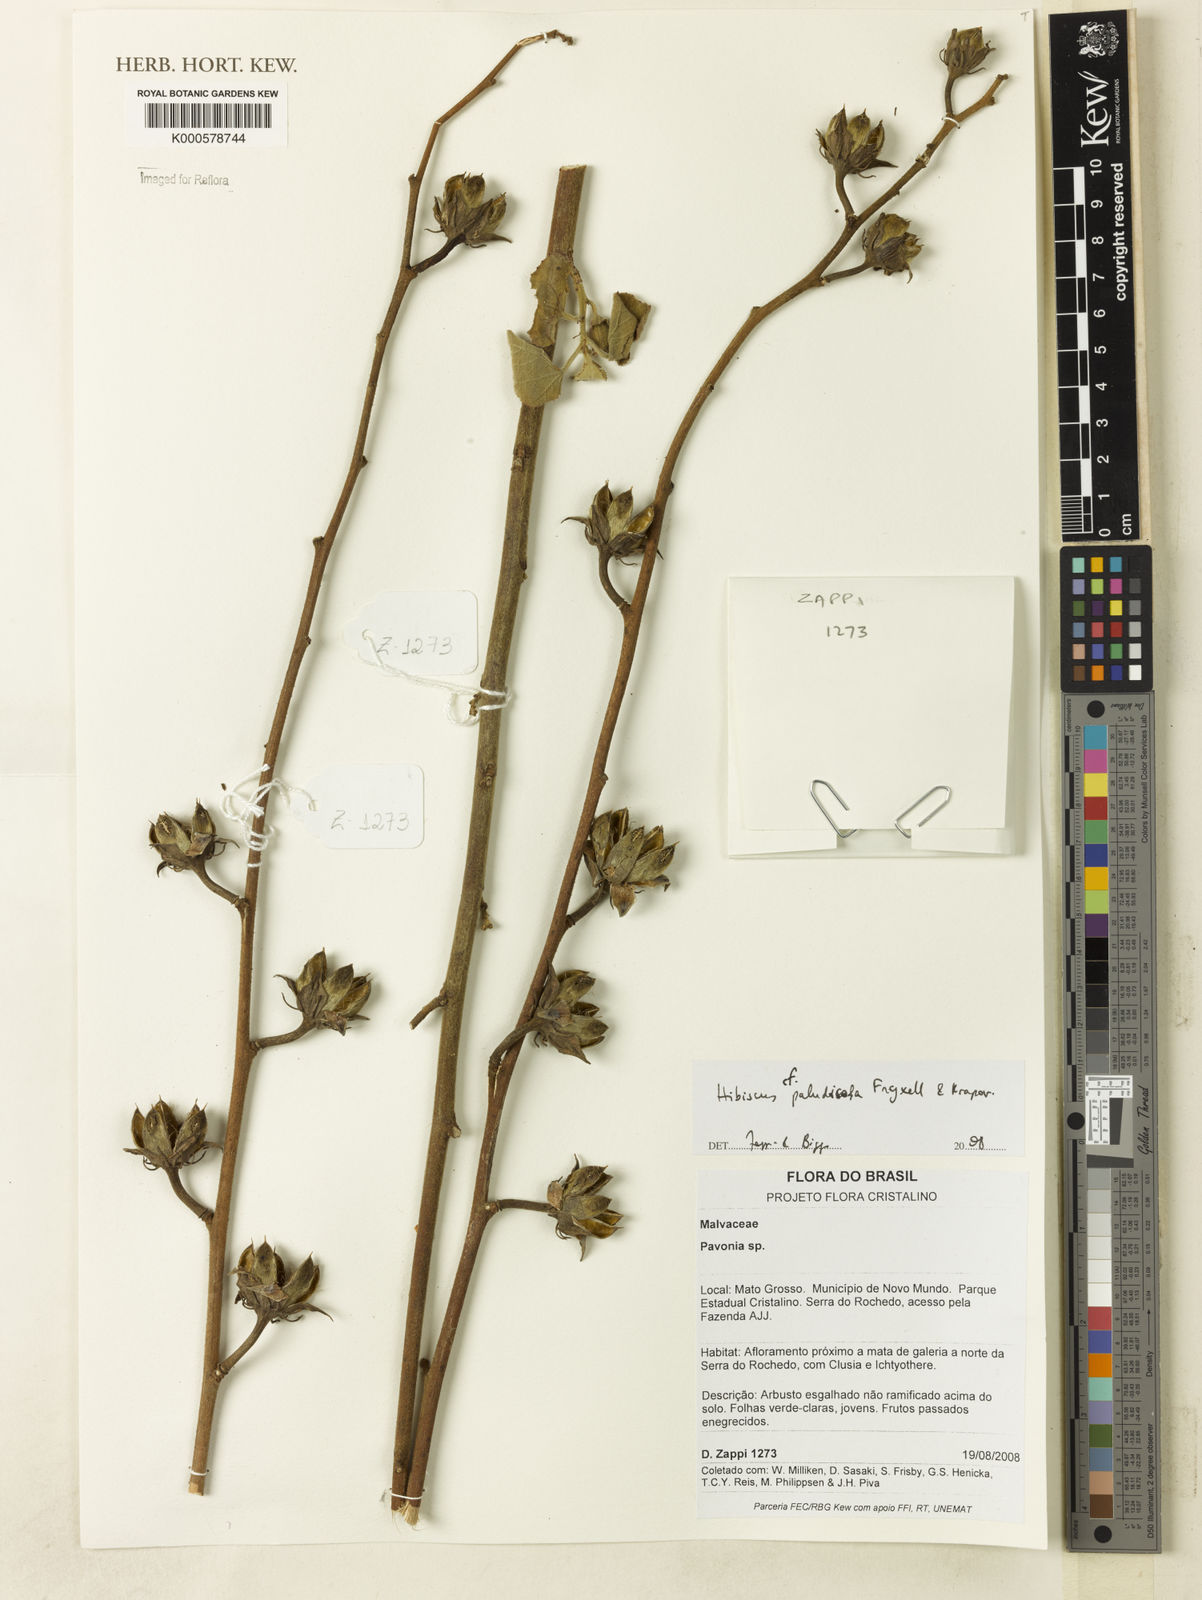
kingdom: Plantae
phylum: Tracheophyta
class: Magnoliopsida
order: Malvales
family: Malvaceae
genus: Hibiscus
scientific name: Hibiscus paludicola
